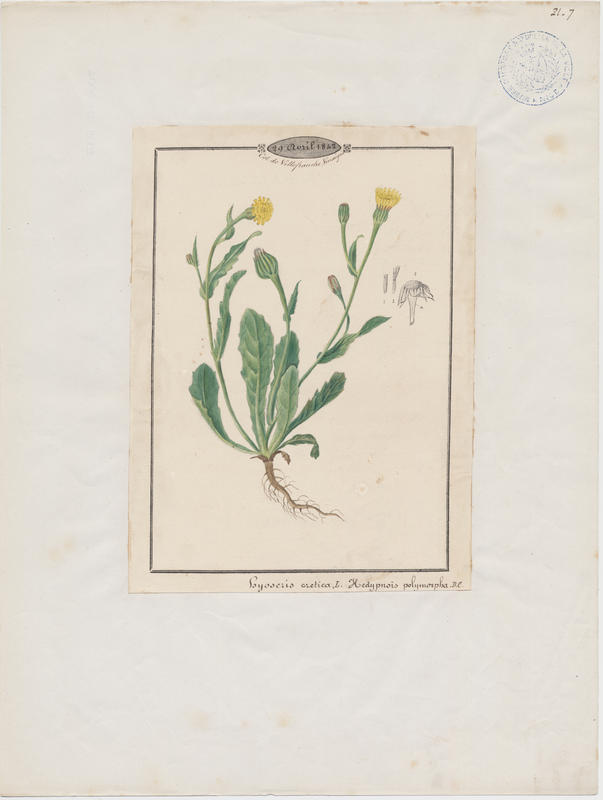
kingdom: Plantae
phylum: Tracheophyta
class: Magnoliopsida
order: Asterales
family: Asteraceae
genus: Hedypnois
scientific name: Hedypnois cretica
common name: Scaly hawkbit
